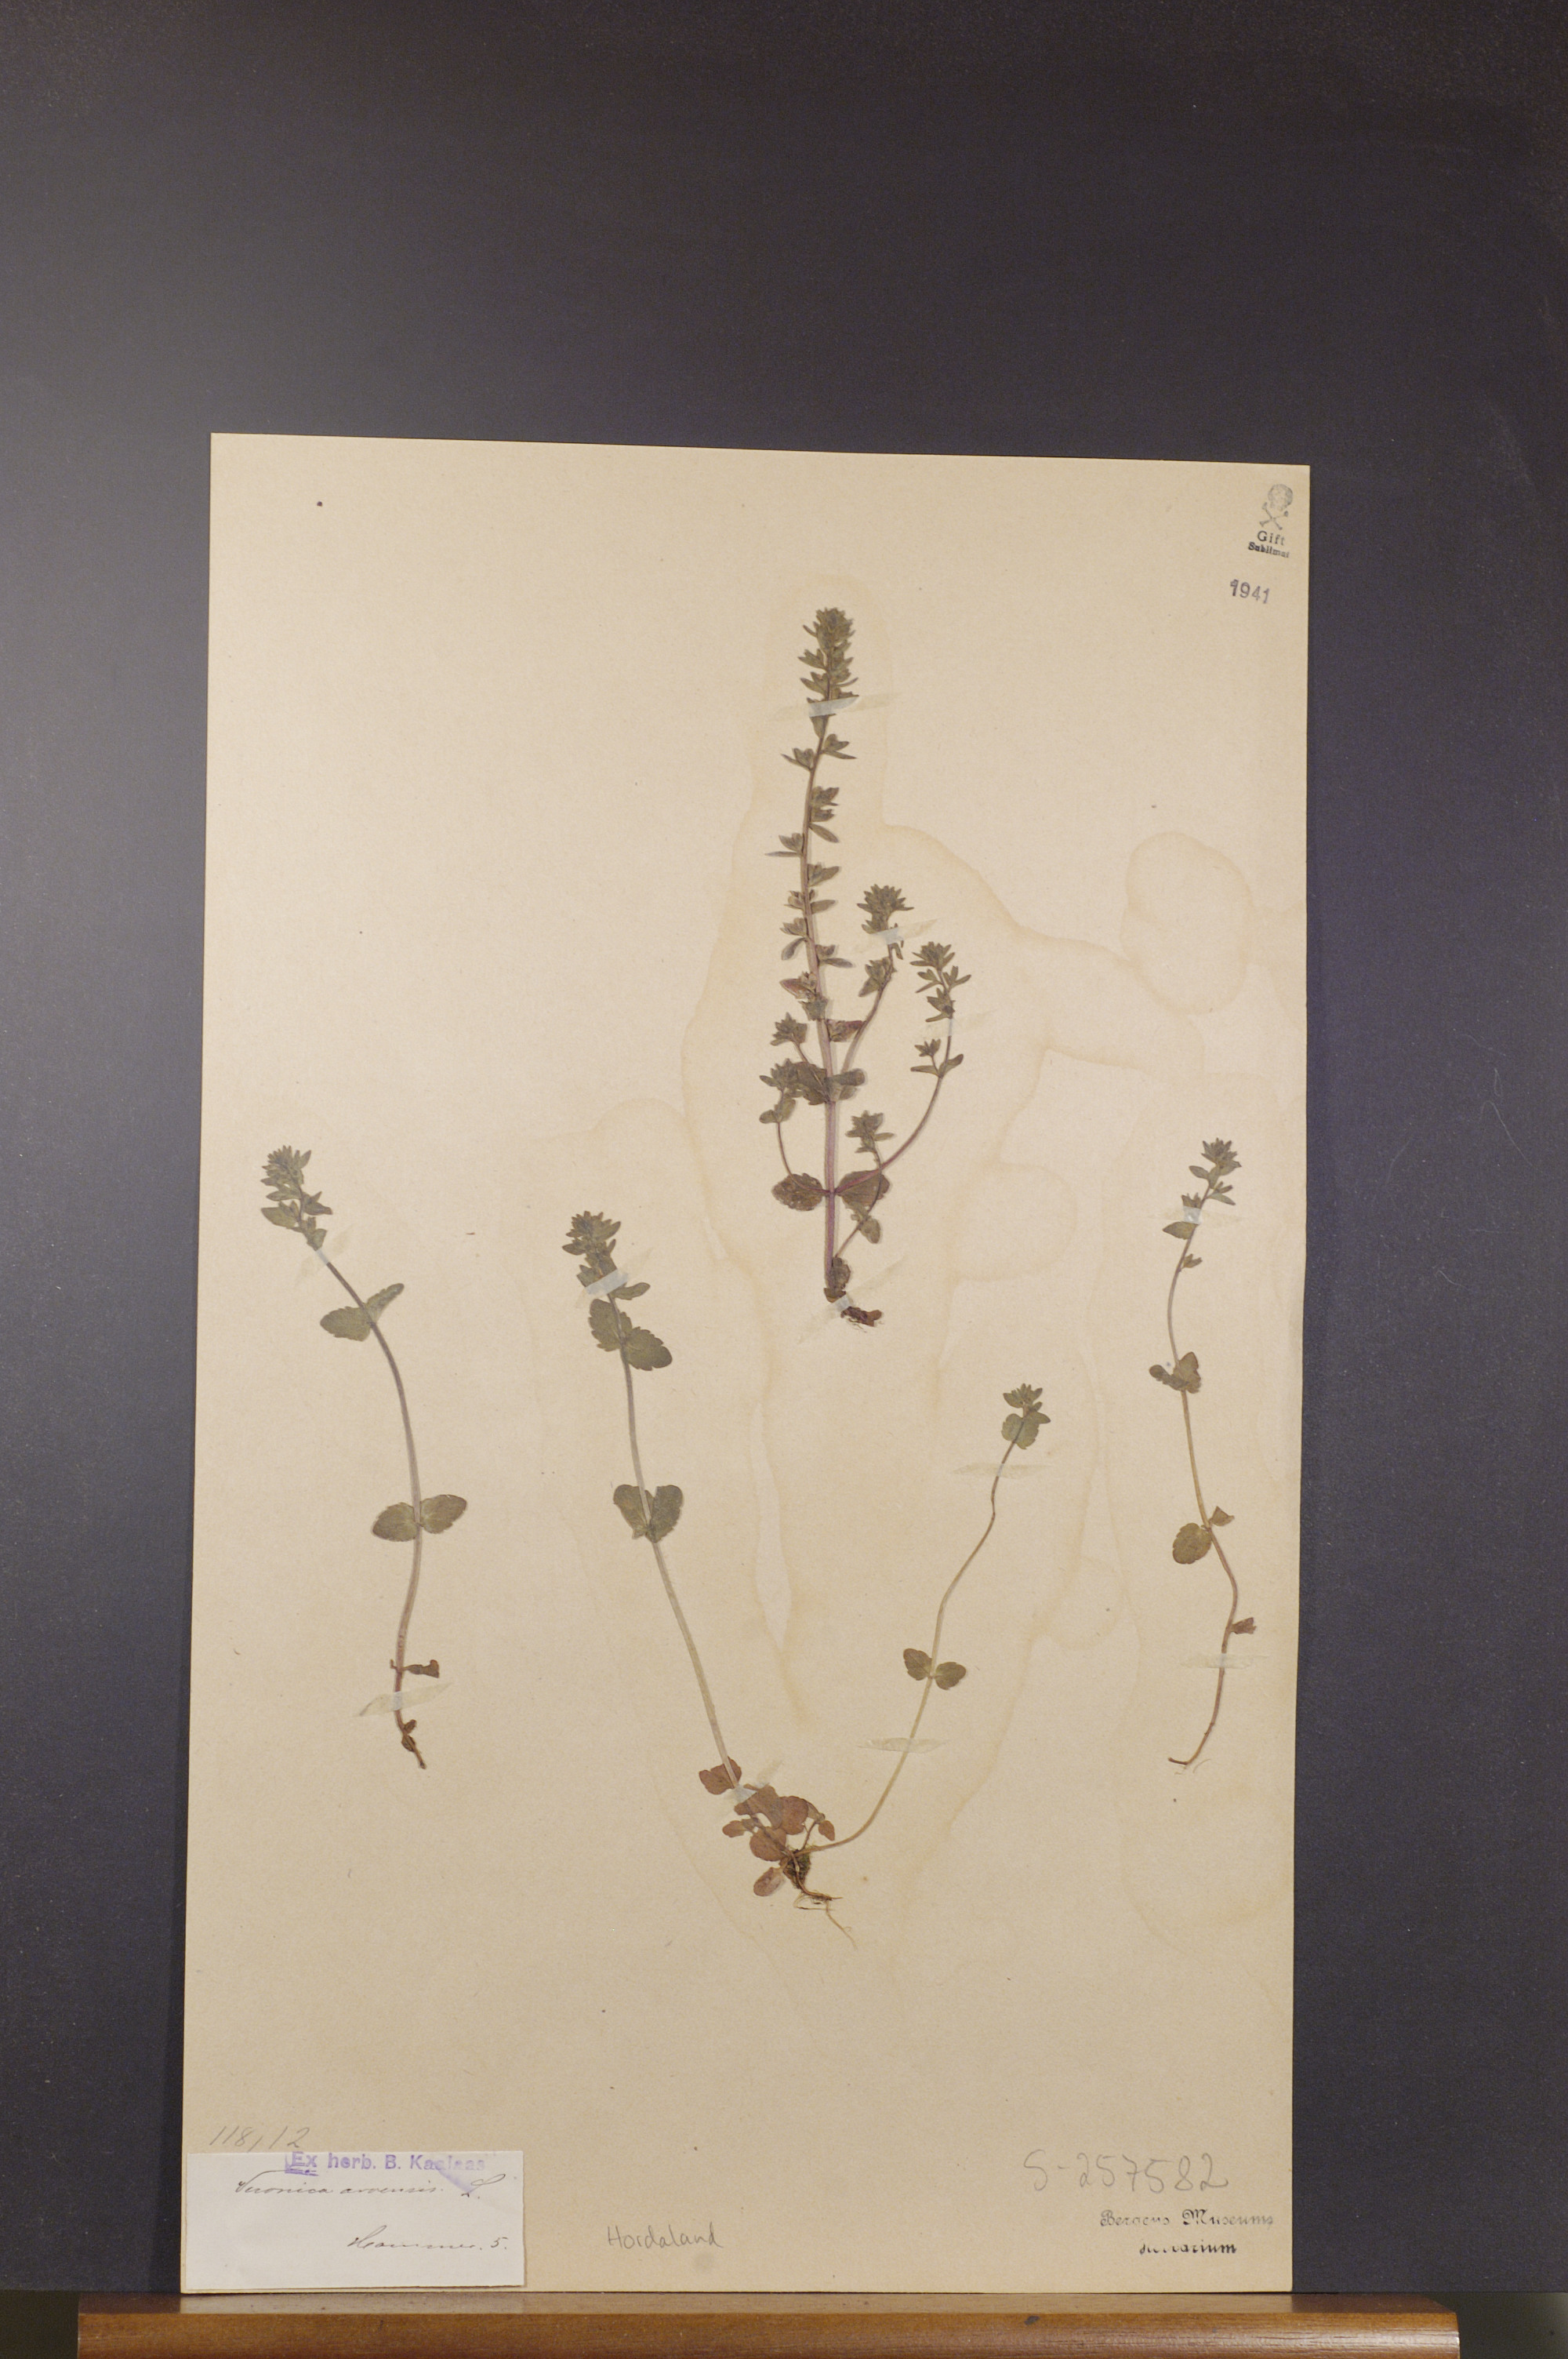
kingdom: Plantae
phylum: Tracheophyta
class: Magnoliopsida
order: Lamiales
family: Plantaginaceae
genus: Veronica
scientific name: Veronica arvensis
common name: Corn speedwell
